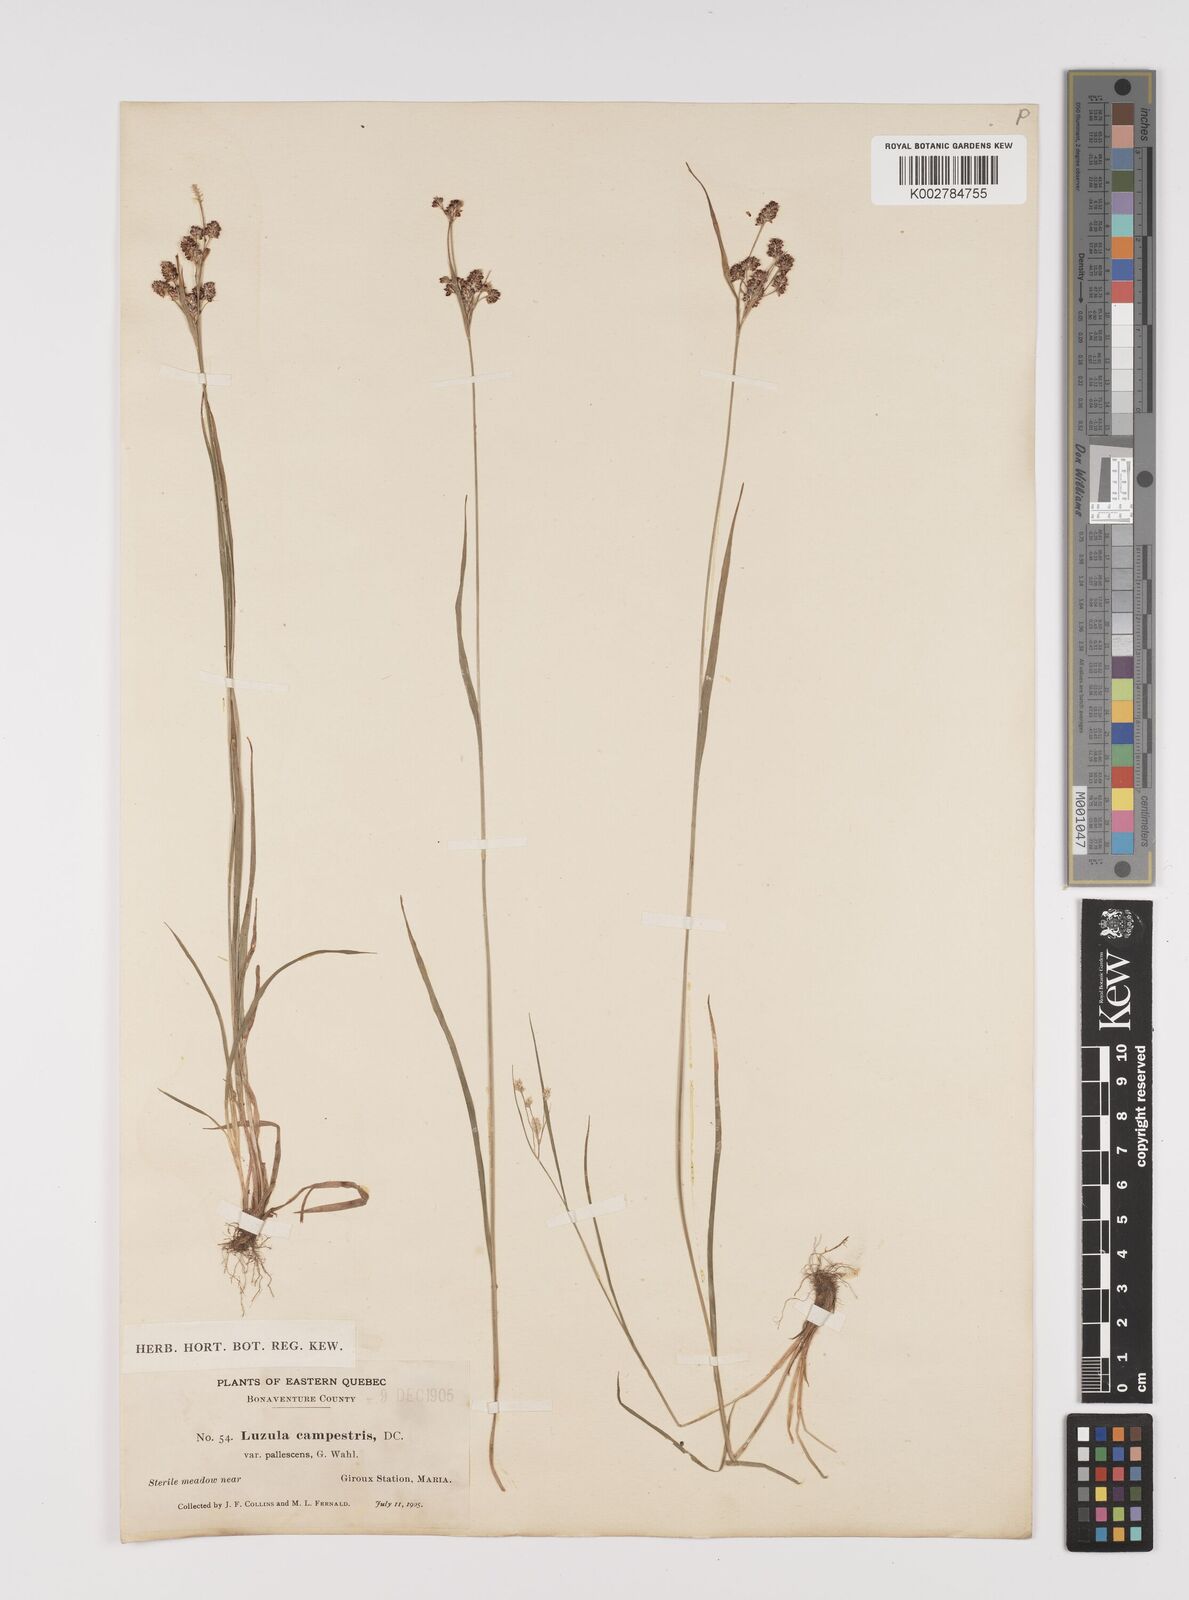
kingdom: Plantae
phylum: Tracheophyta
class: Liliopsida
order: Poales
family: Juncaceae
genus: Luzula
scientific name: Luzula pallescens
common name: Fen wood-rush
